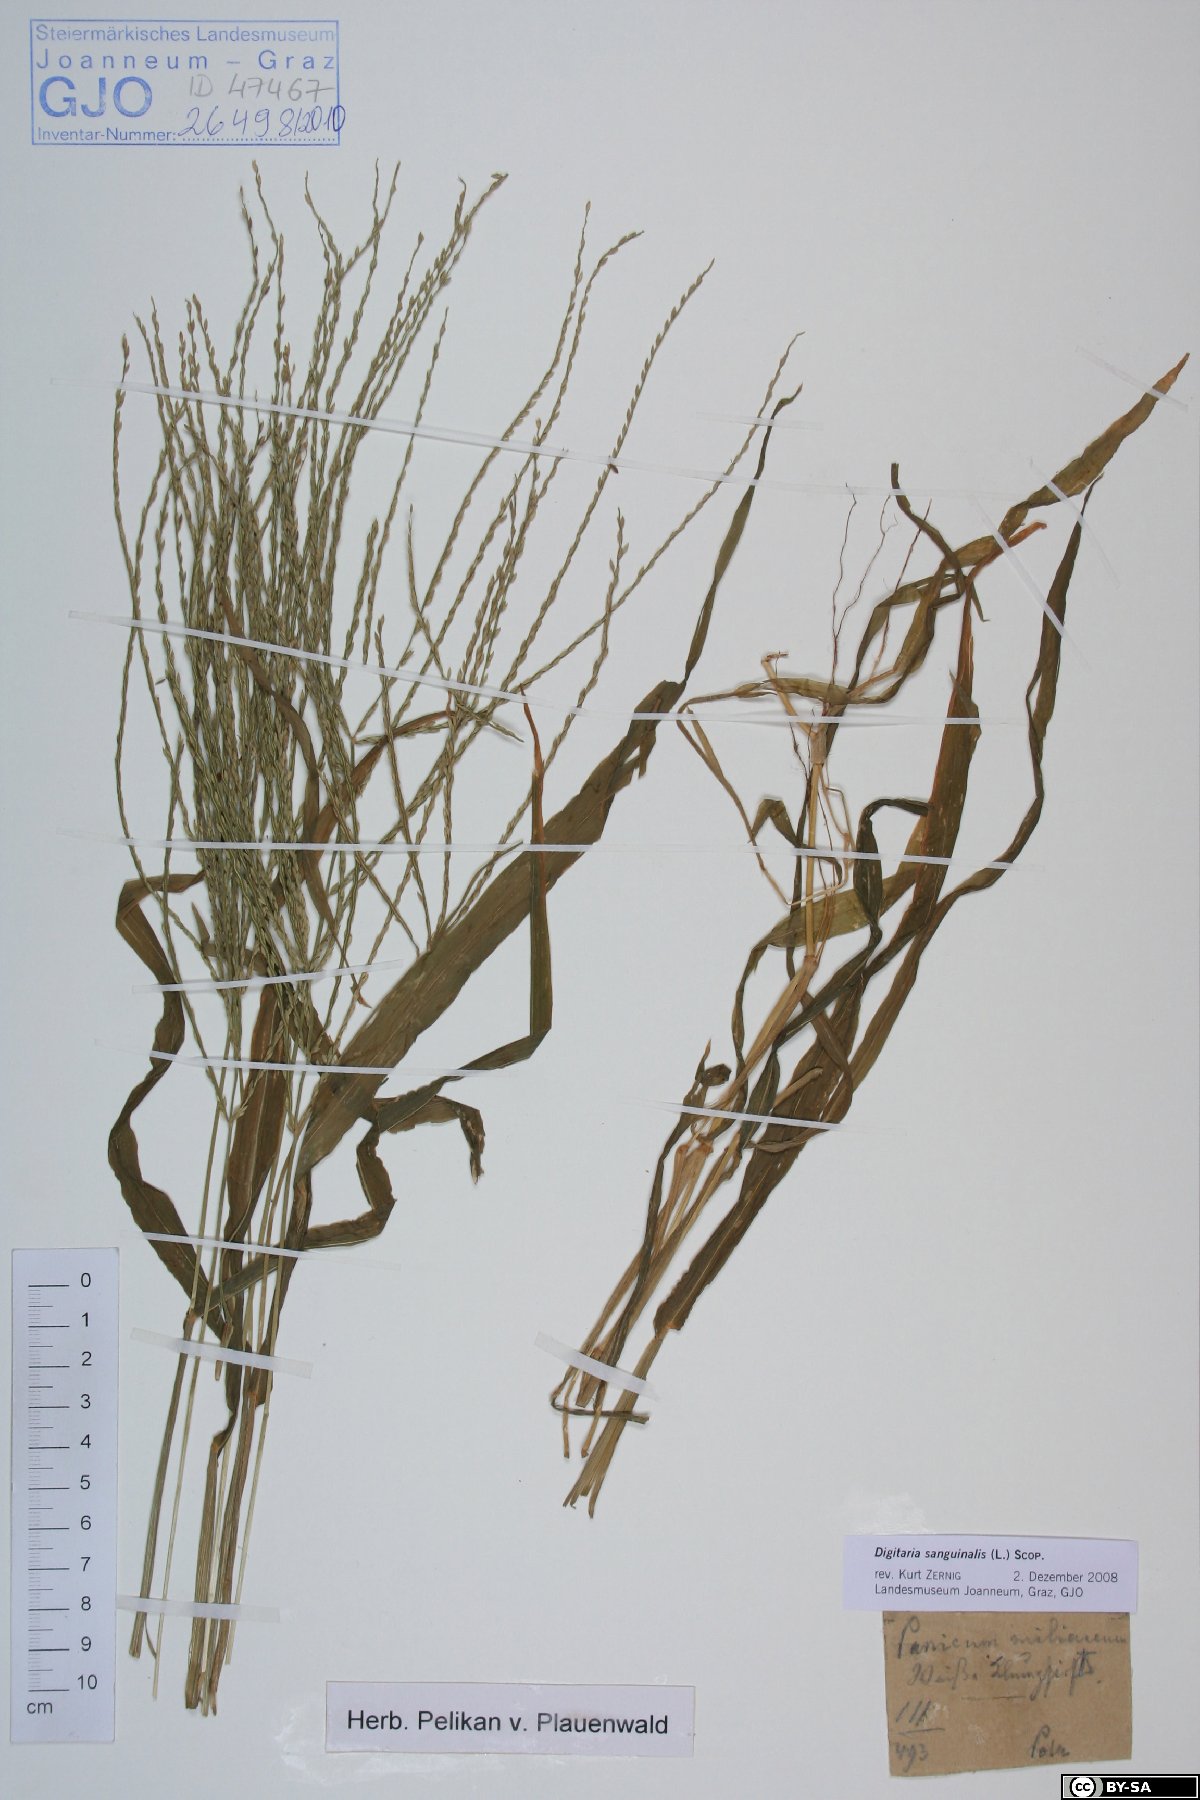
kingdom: Plantae
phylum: Tracheophyta
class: Liliopsida
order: Poales
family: Poaceae
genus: Digitaria
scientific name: Digitaria sanguinalis
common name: Hairy crabgrass
